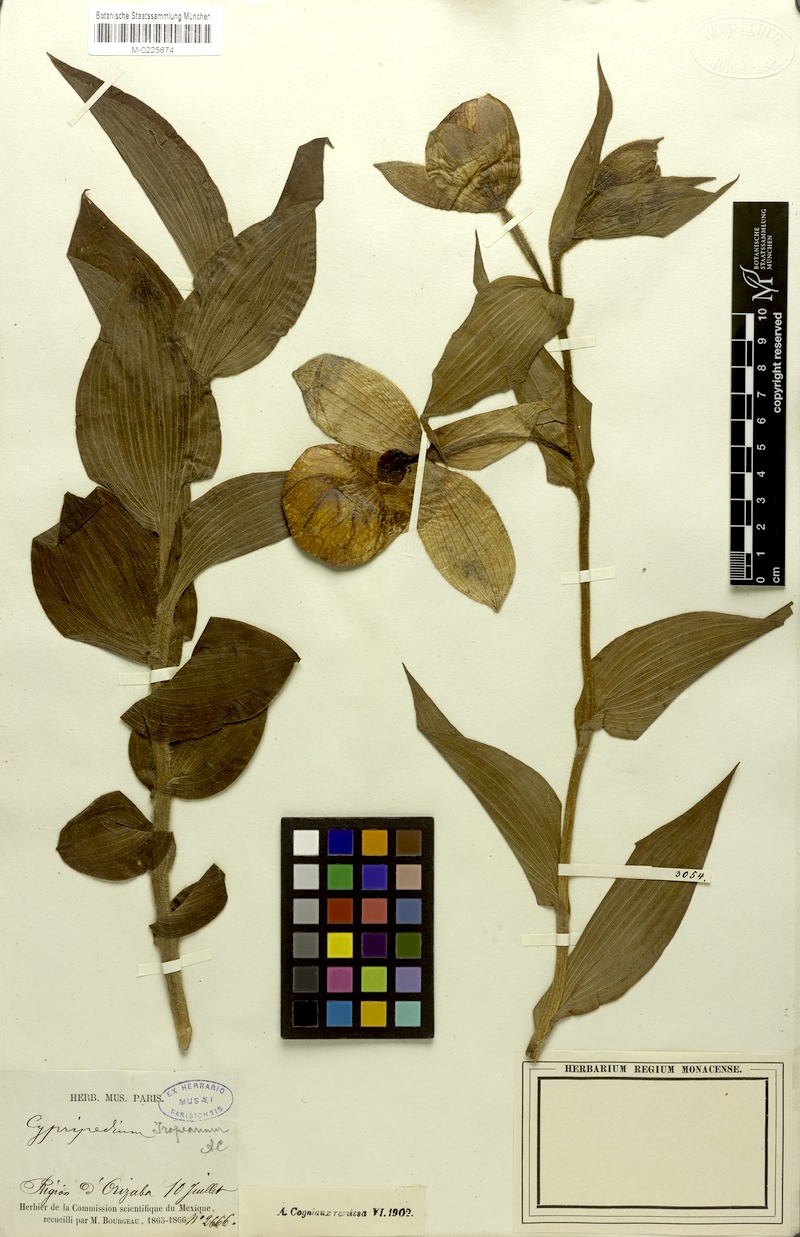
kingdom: Plantae
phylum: Tracheophyta
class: Liliopsida
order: Asparagales
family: Orchidaceae
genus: Cypripedium
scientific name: Cypripedium irapeanum
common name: Irapeao cypripedium
